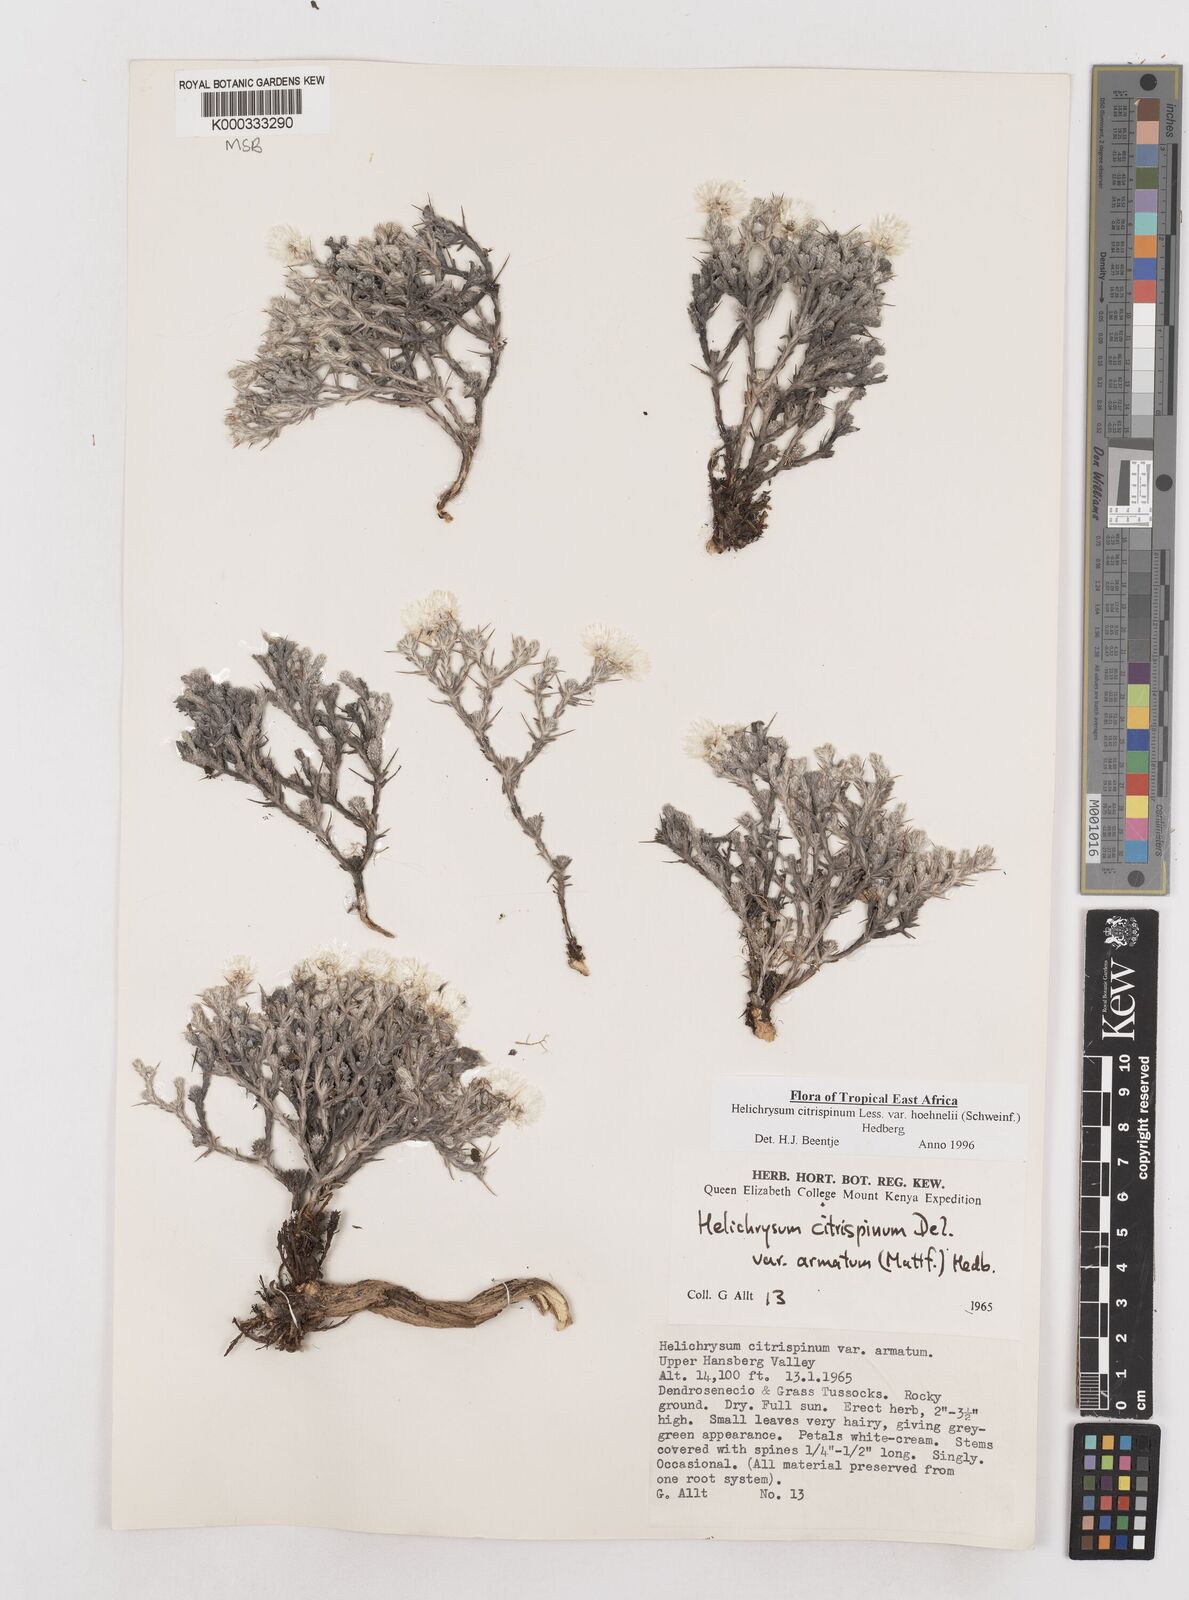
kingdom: Plantae
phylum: Tracheophyta
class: Magnoliopsida
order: Asterales
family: Asteraceae
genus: Helichrysum
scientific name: Helichrysum citrispinum
